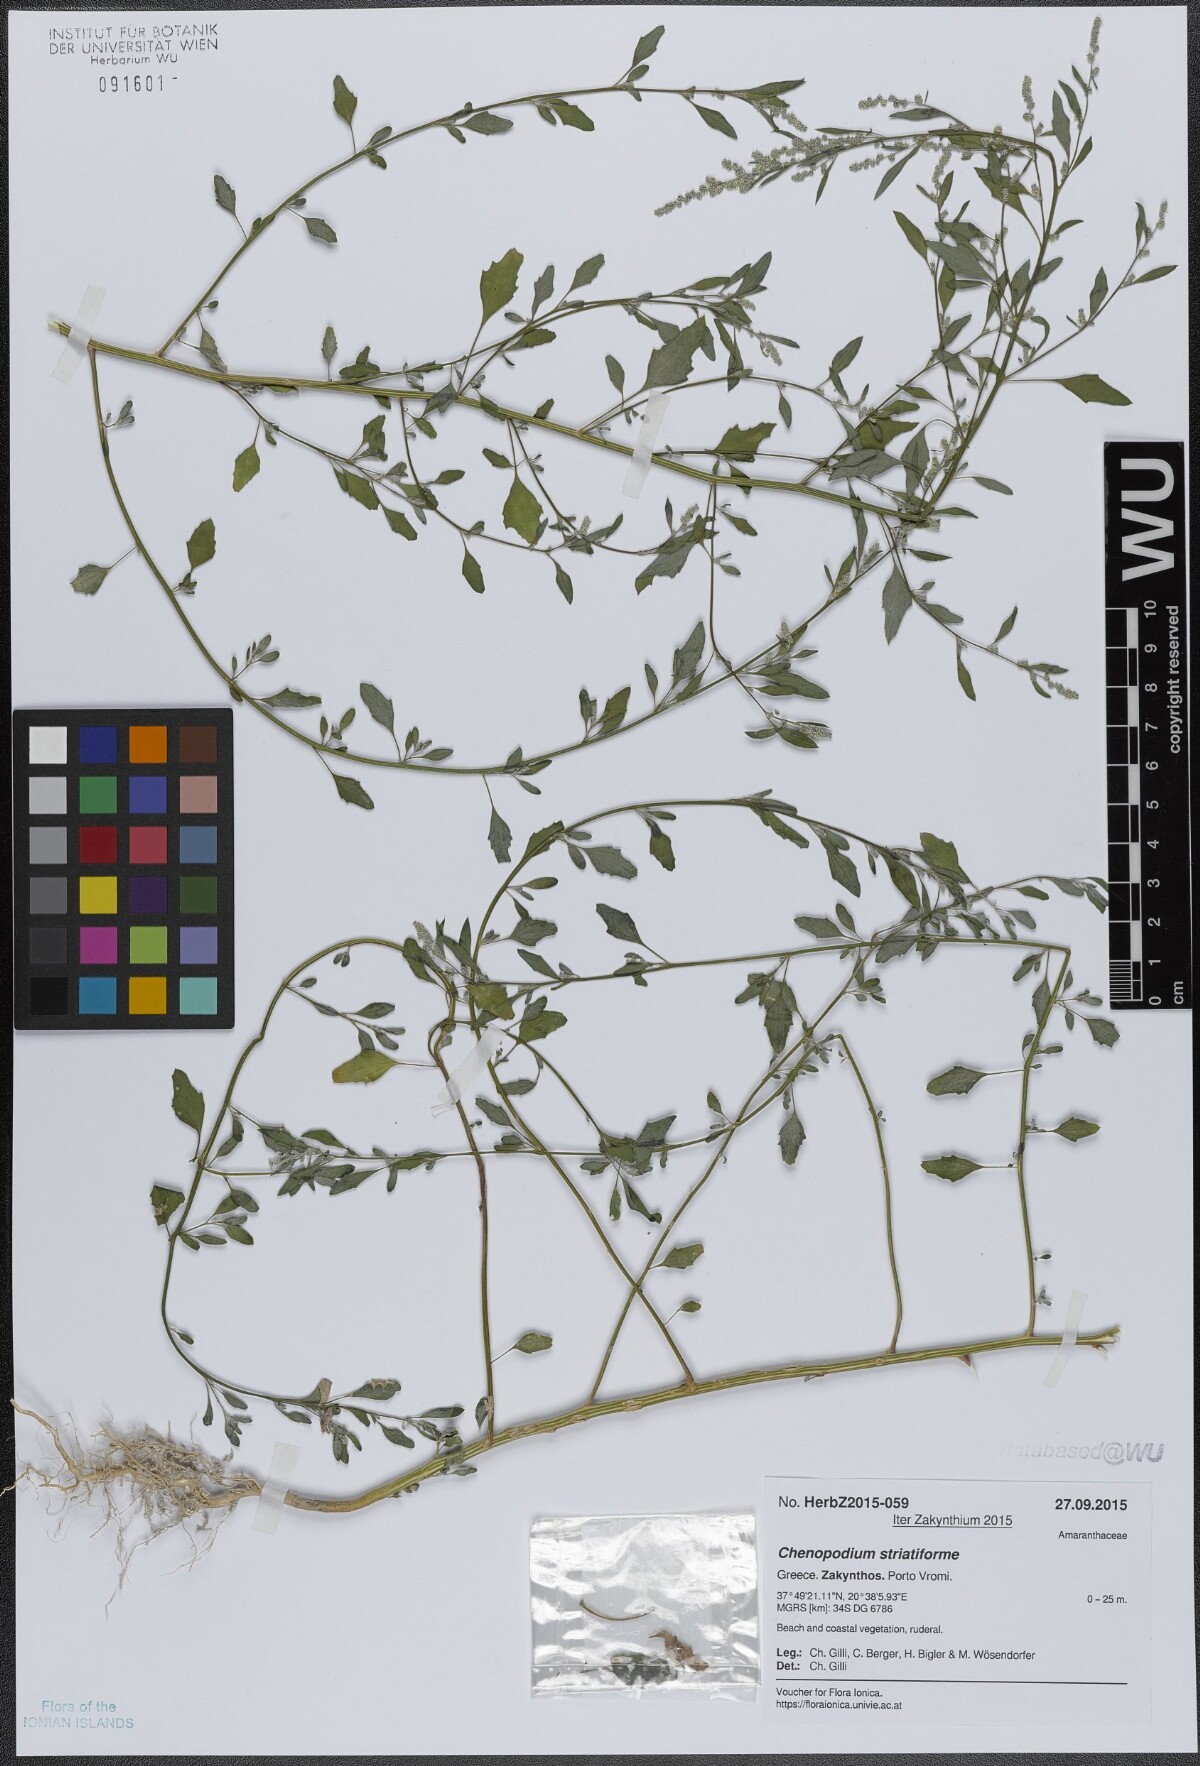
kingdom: Plantae
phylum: Tracheophyta
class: Magnoliopsida
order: Caryophyllales
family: Amaranthaceae
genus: Chenopodium
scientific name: Chenopodium striatiforme
